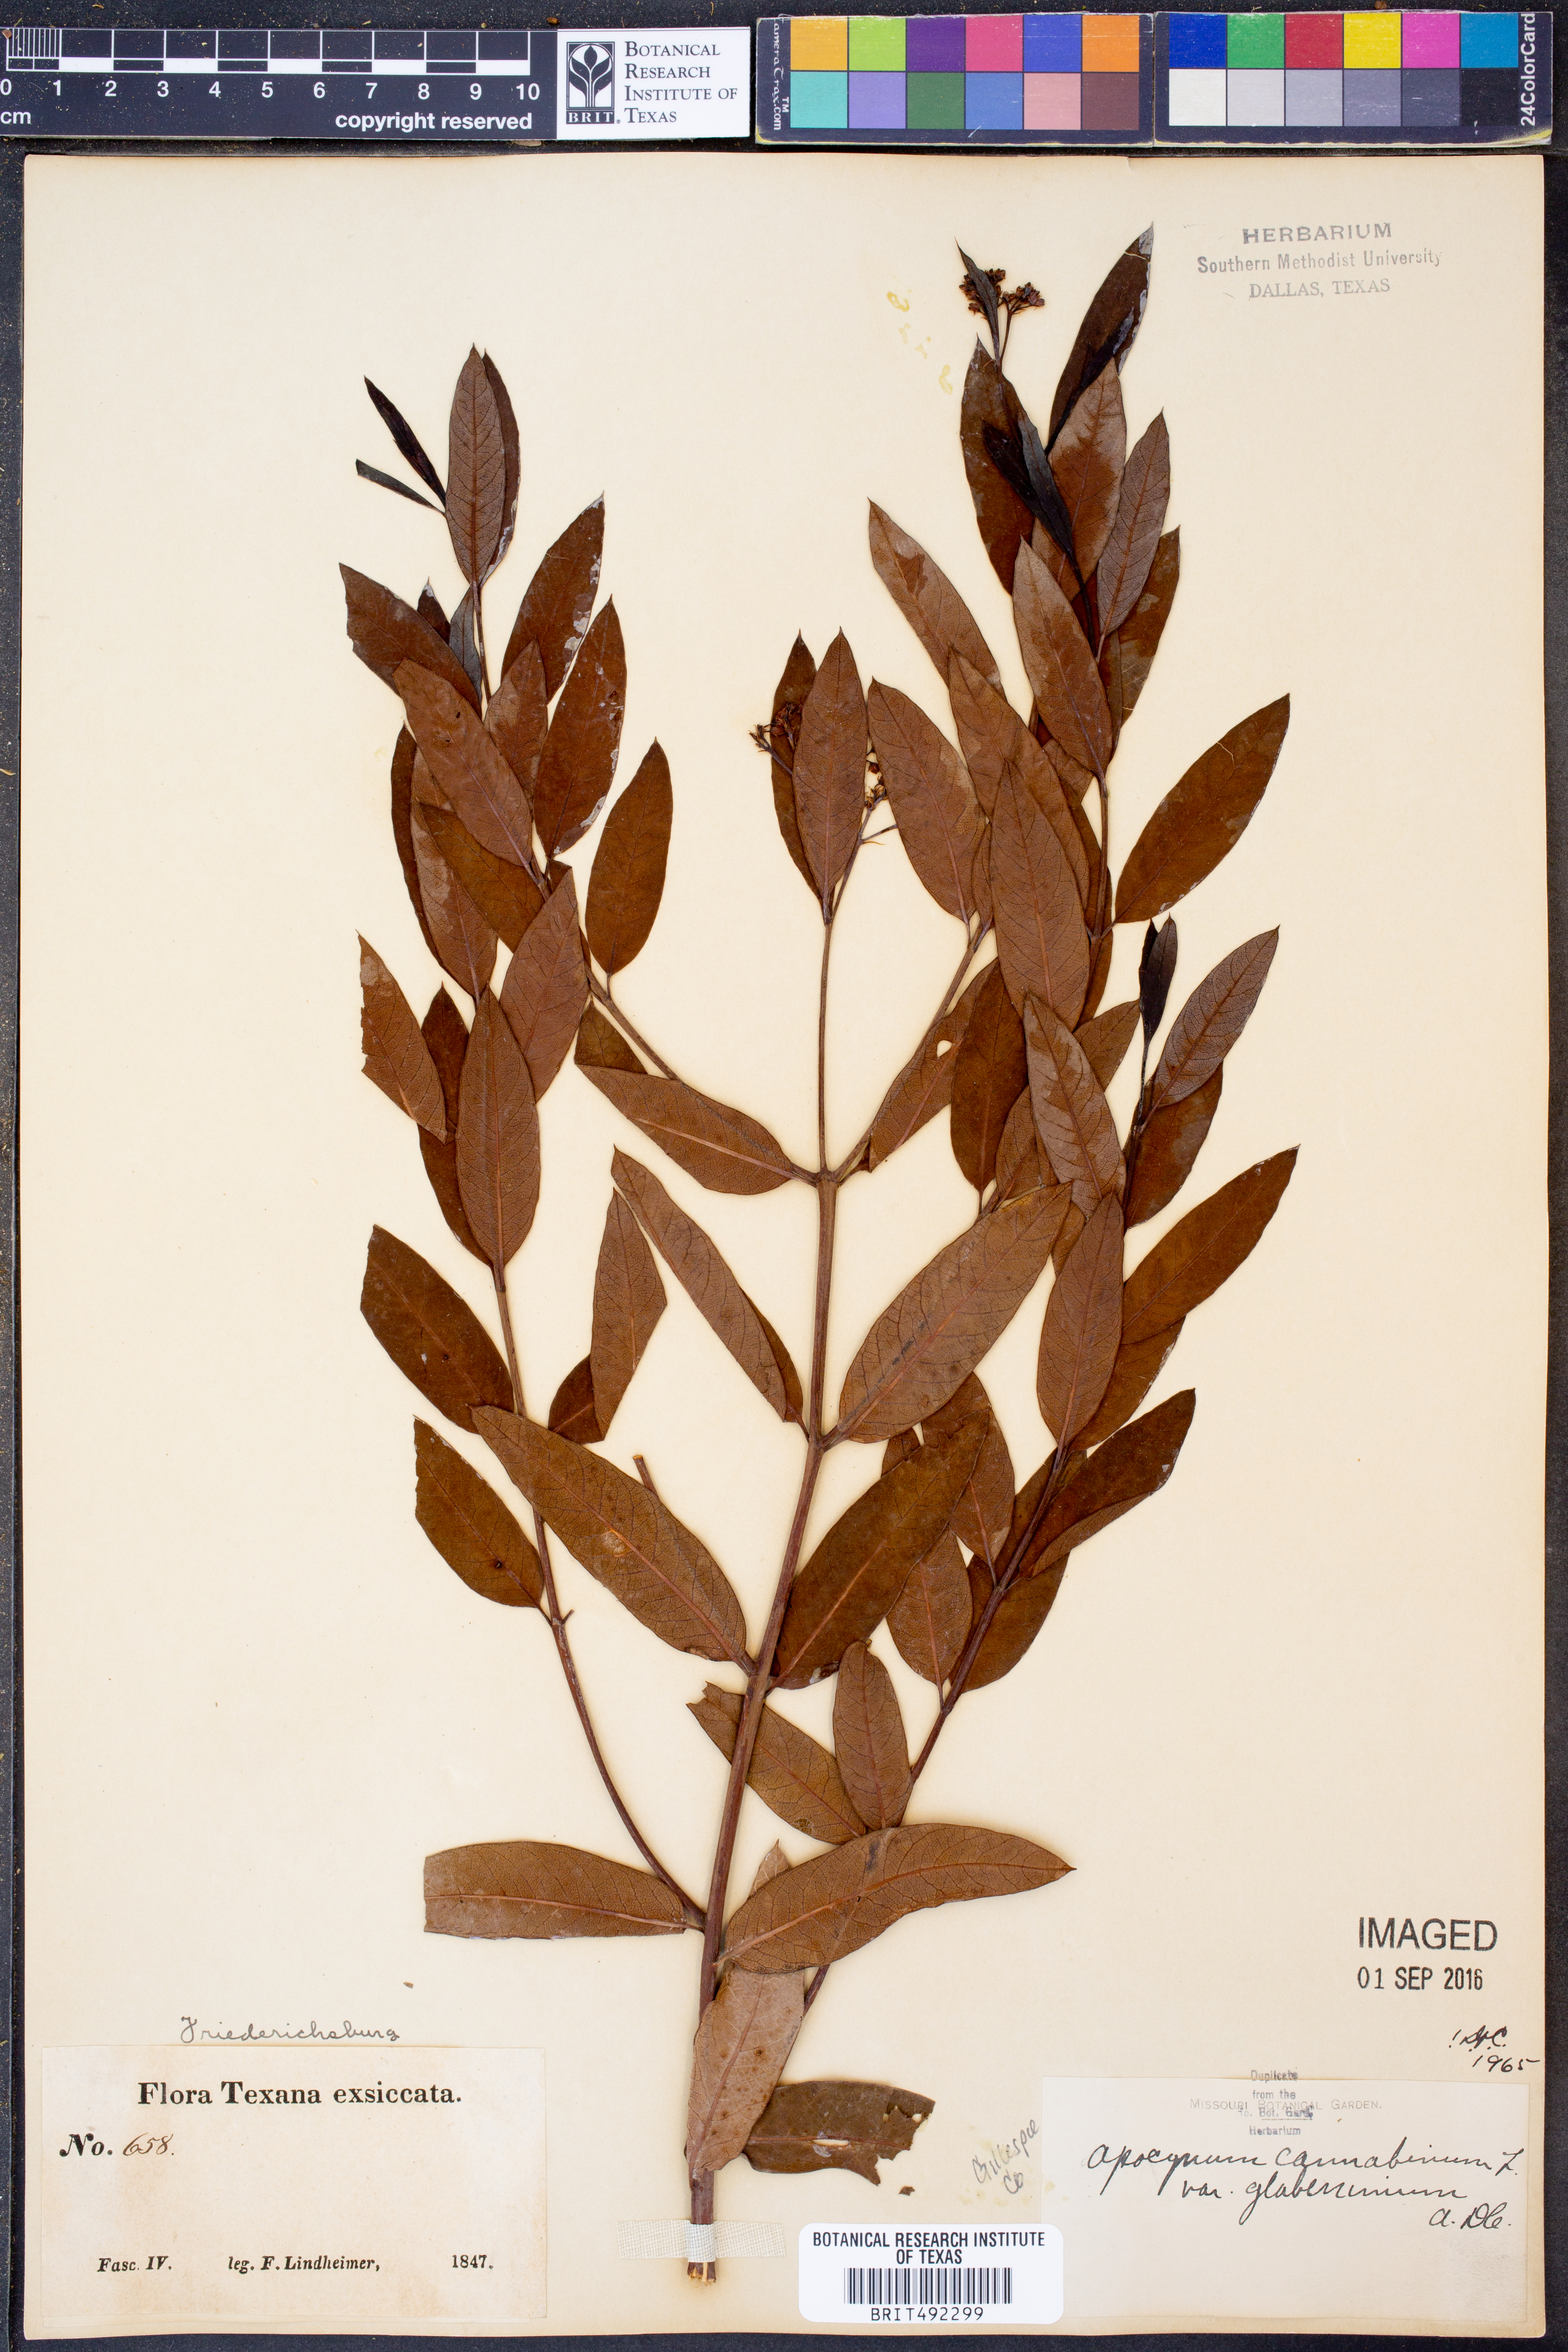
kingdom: Plantae
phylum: Tracheophyta
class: Magnoliopsida
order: Gentianales
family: Apocynaceae
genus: Apocynum
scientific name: Apocynum cannabinum
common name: Hemp dogbane
